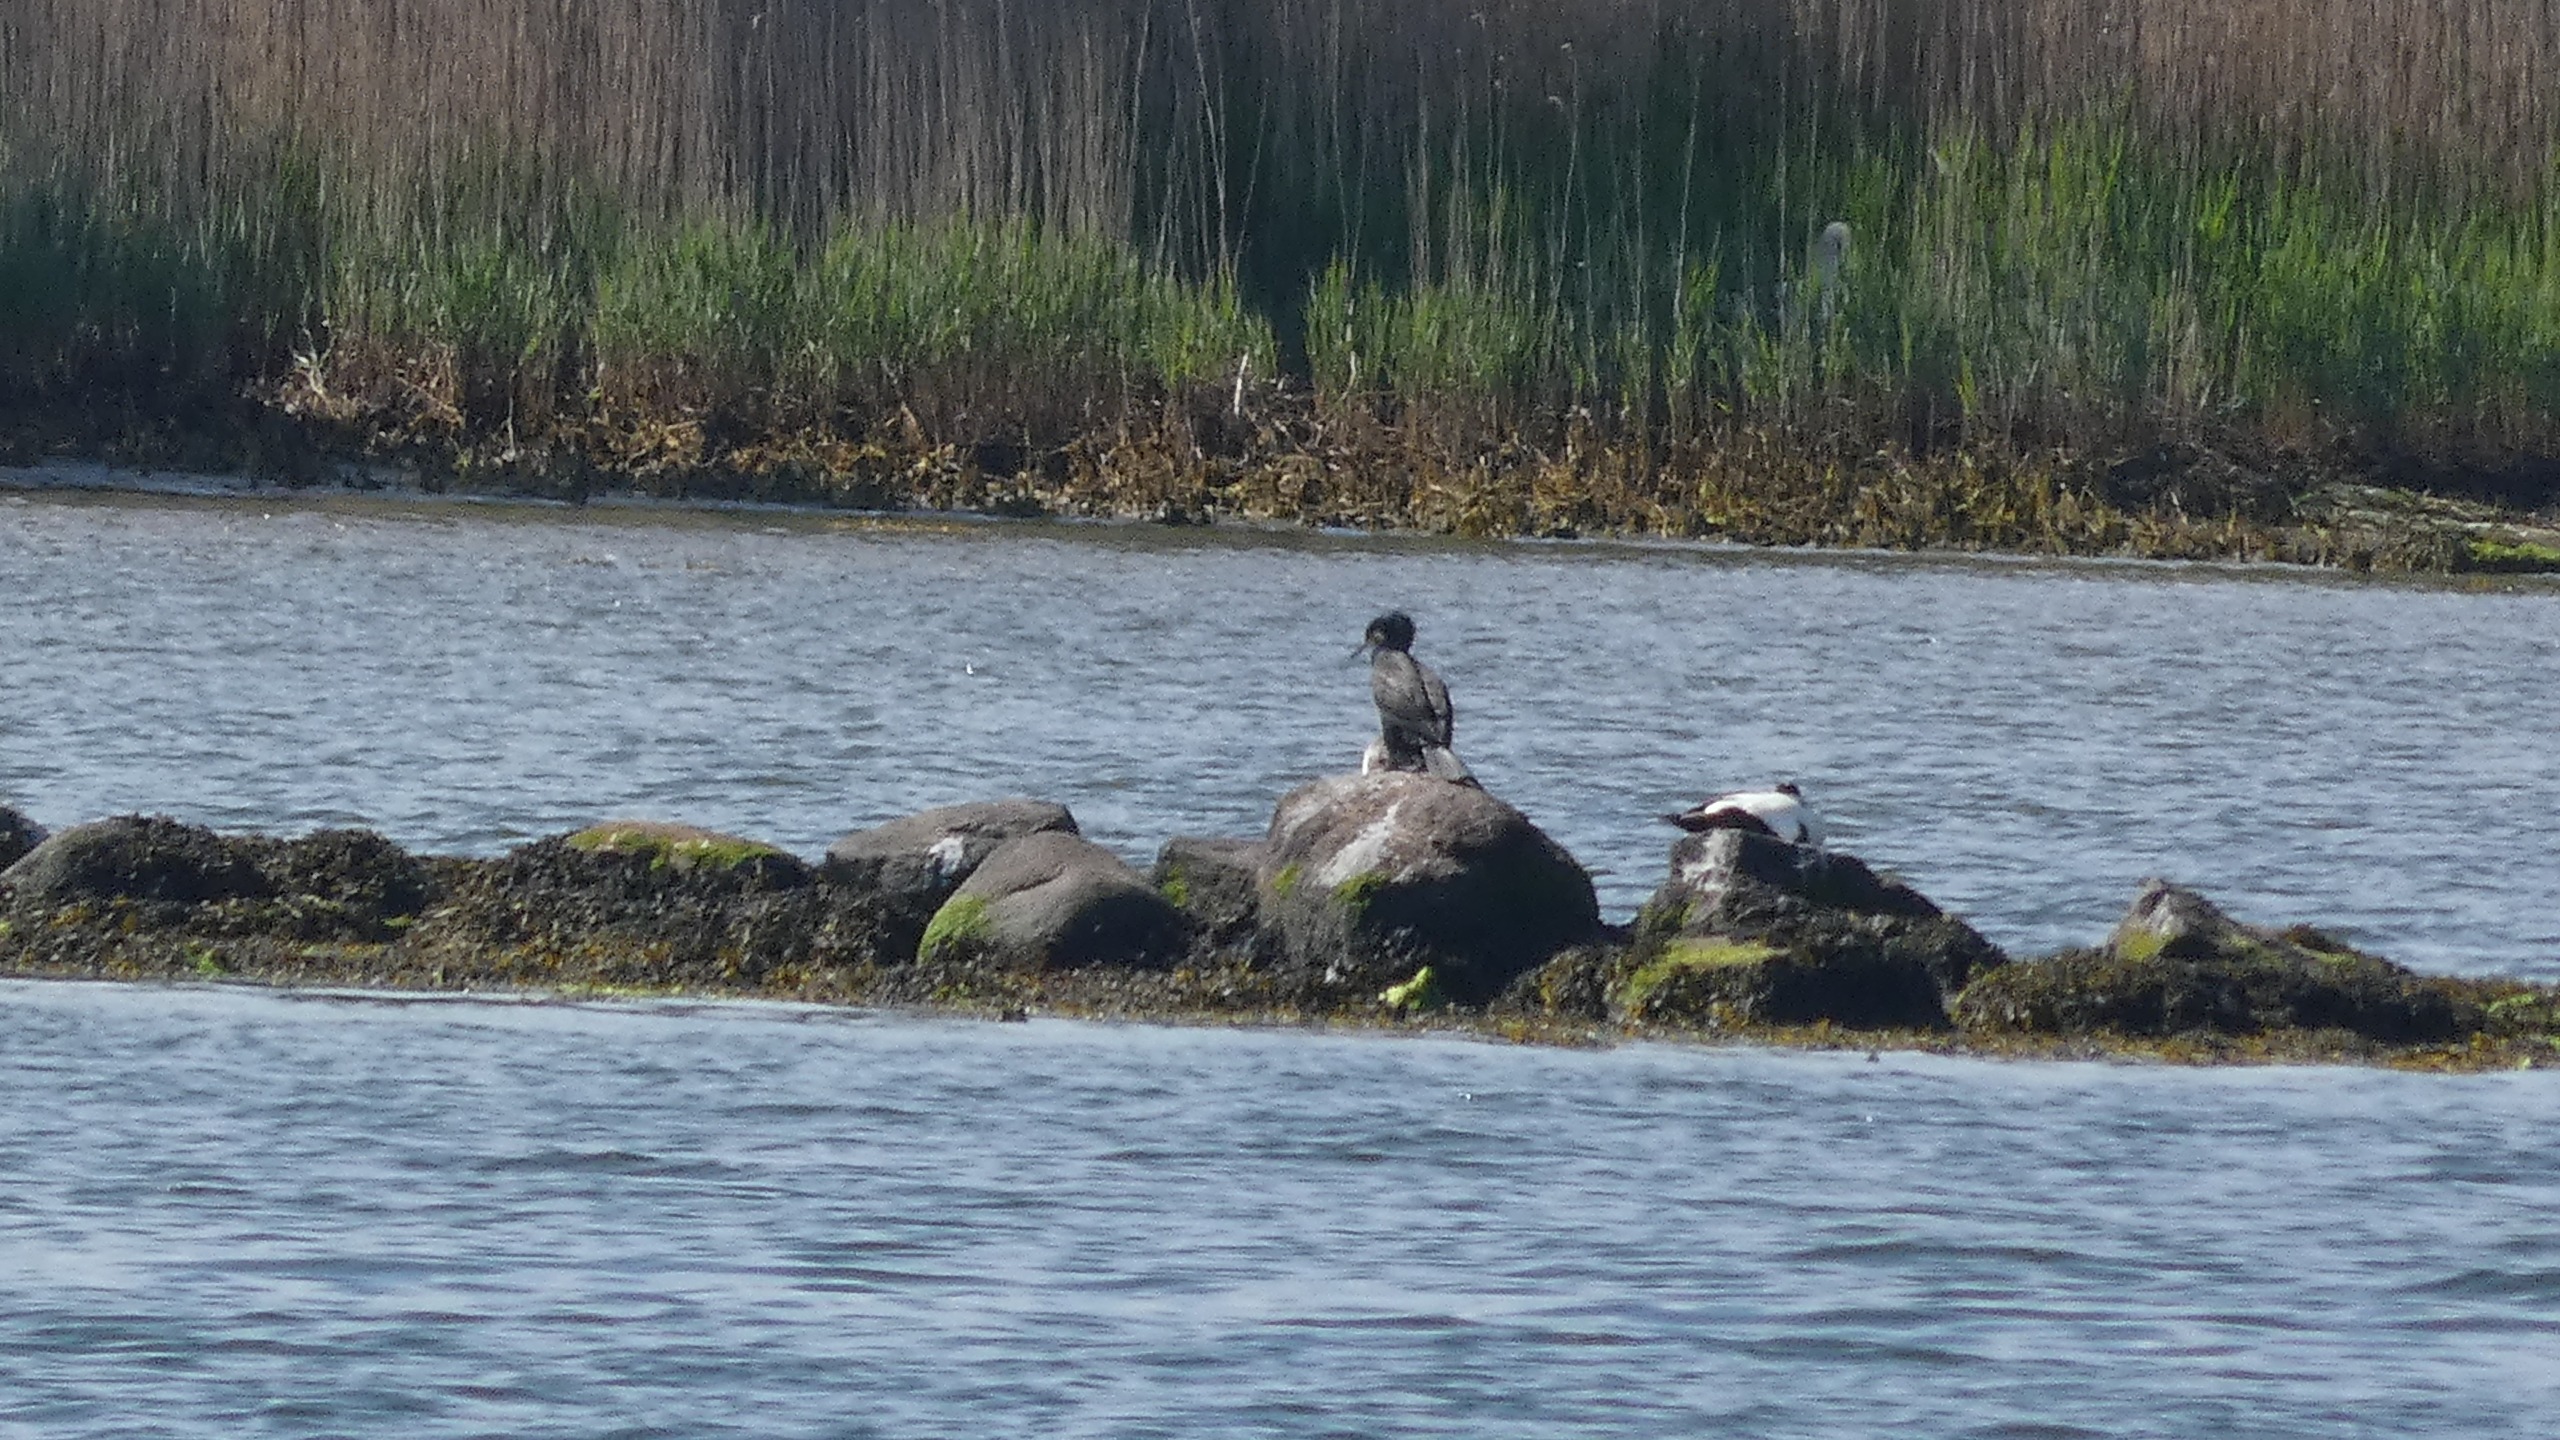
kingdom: Animalia
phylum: Chordata
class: Aves
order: Anseriformes
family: Anatidae
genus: Somateria
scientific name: Somateria mollissima
